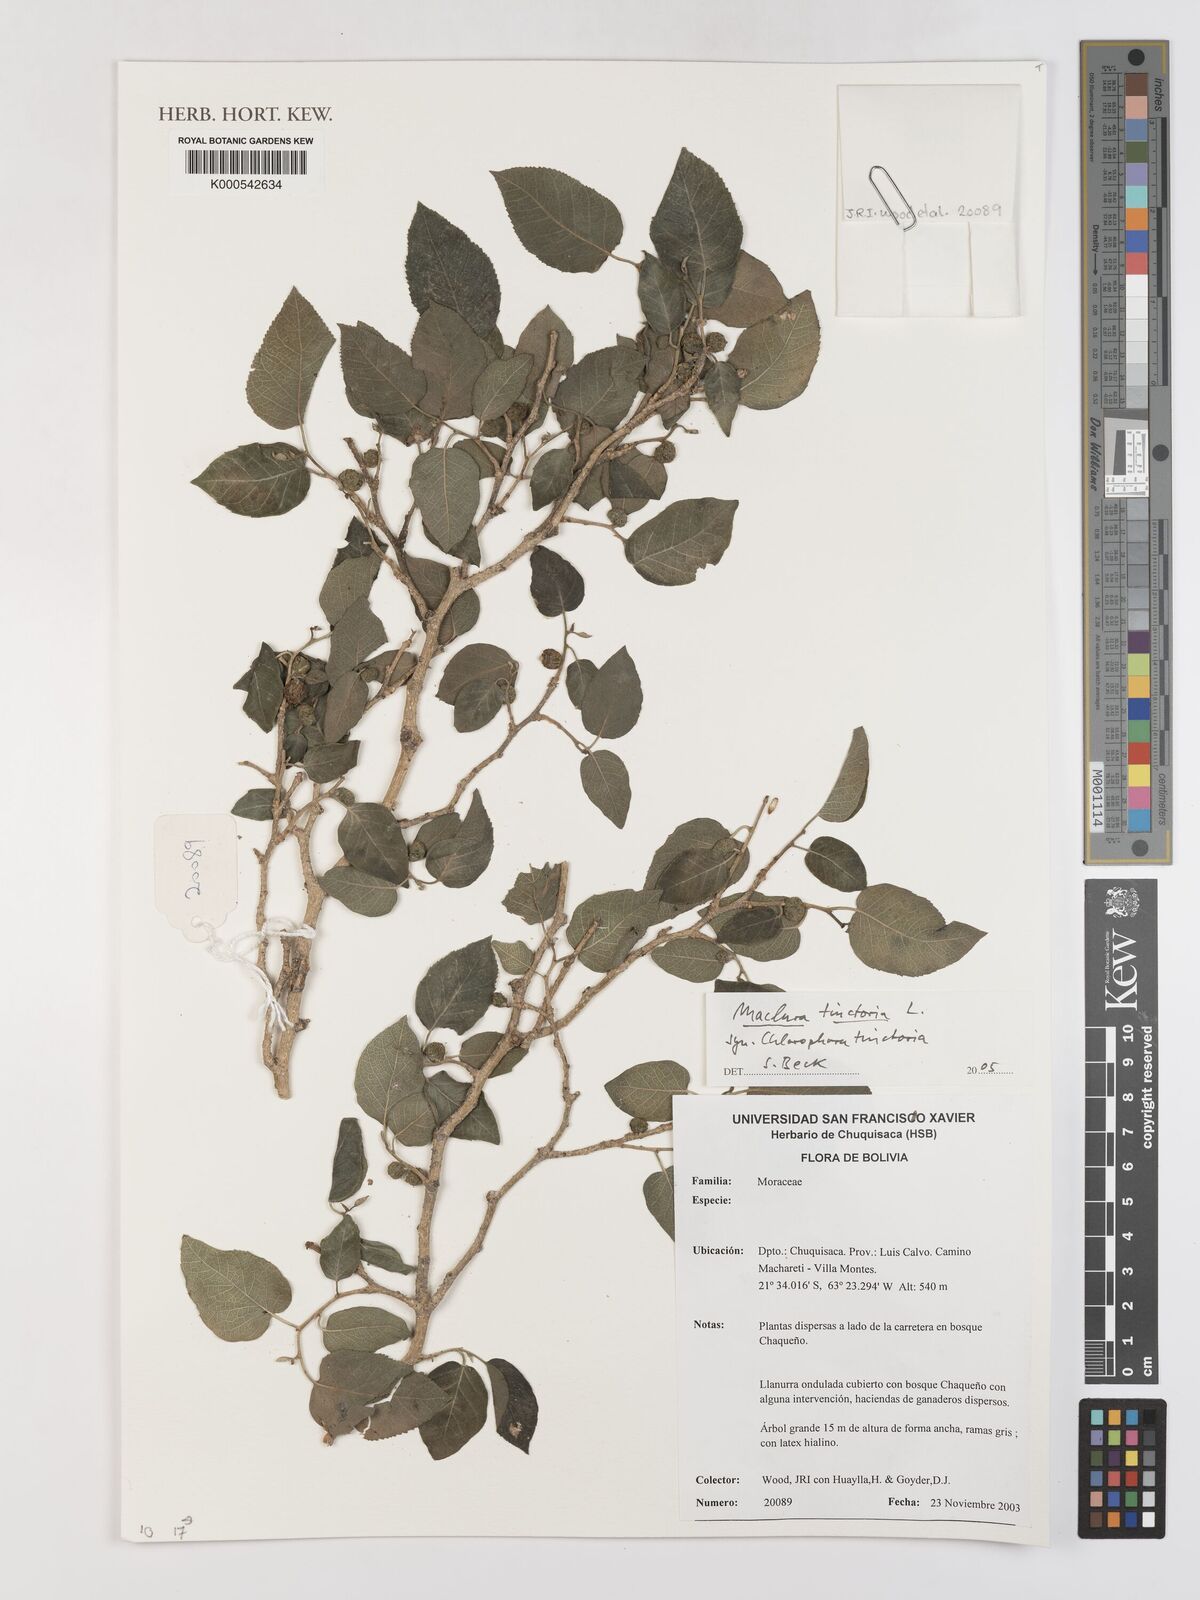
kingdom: Plantae
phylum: Tracheophyta
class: Magnoliopsida
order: Rosales
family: Moraceae
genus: Maclura
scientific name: Maclura
